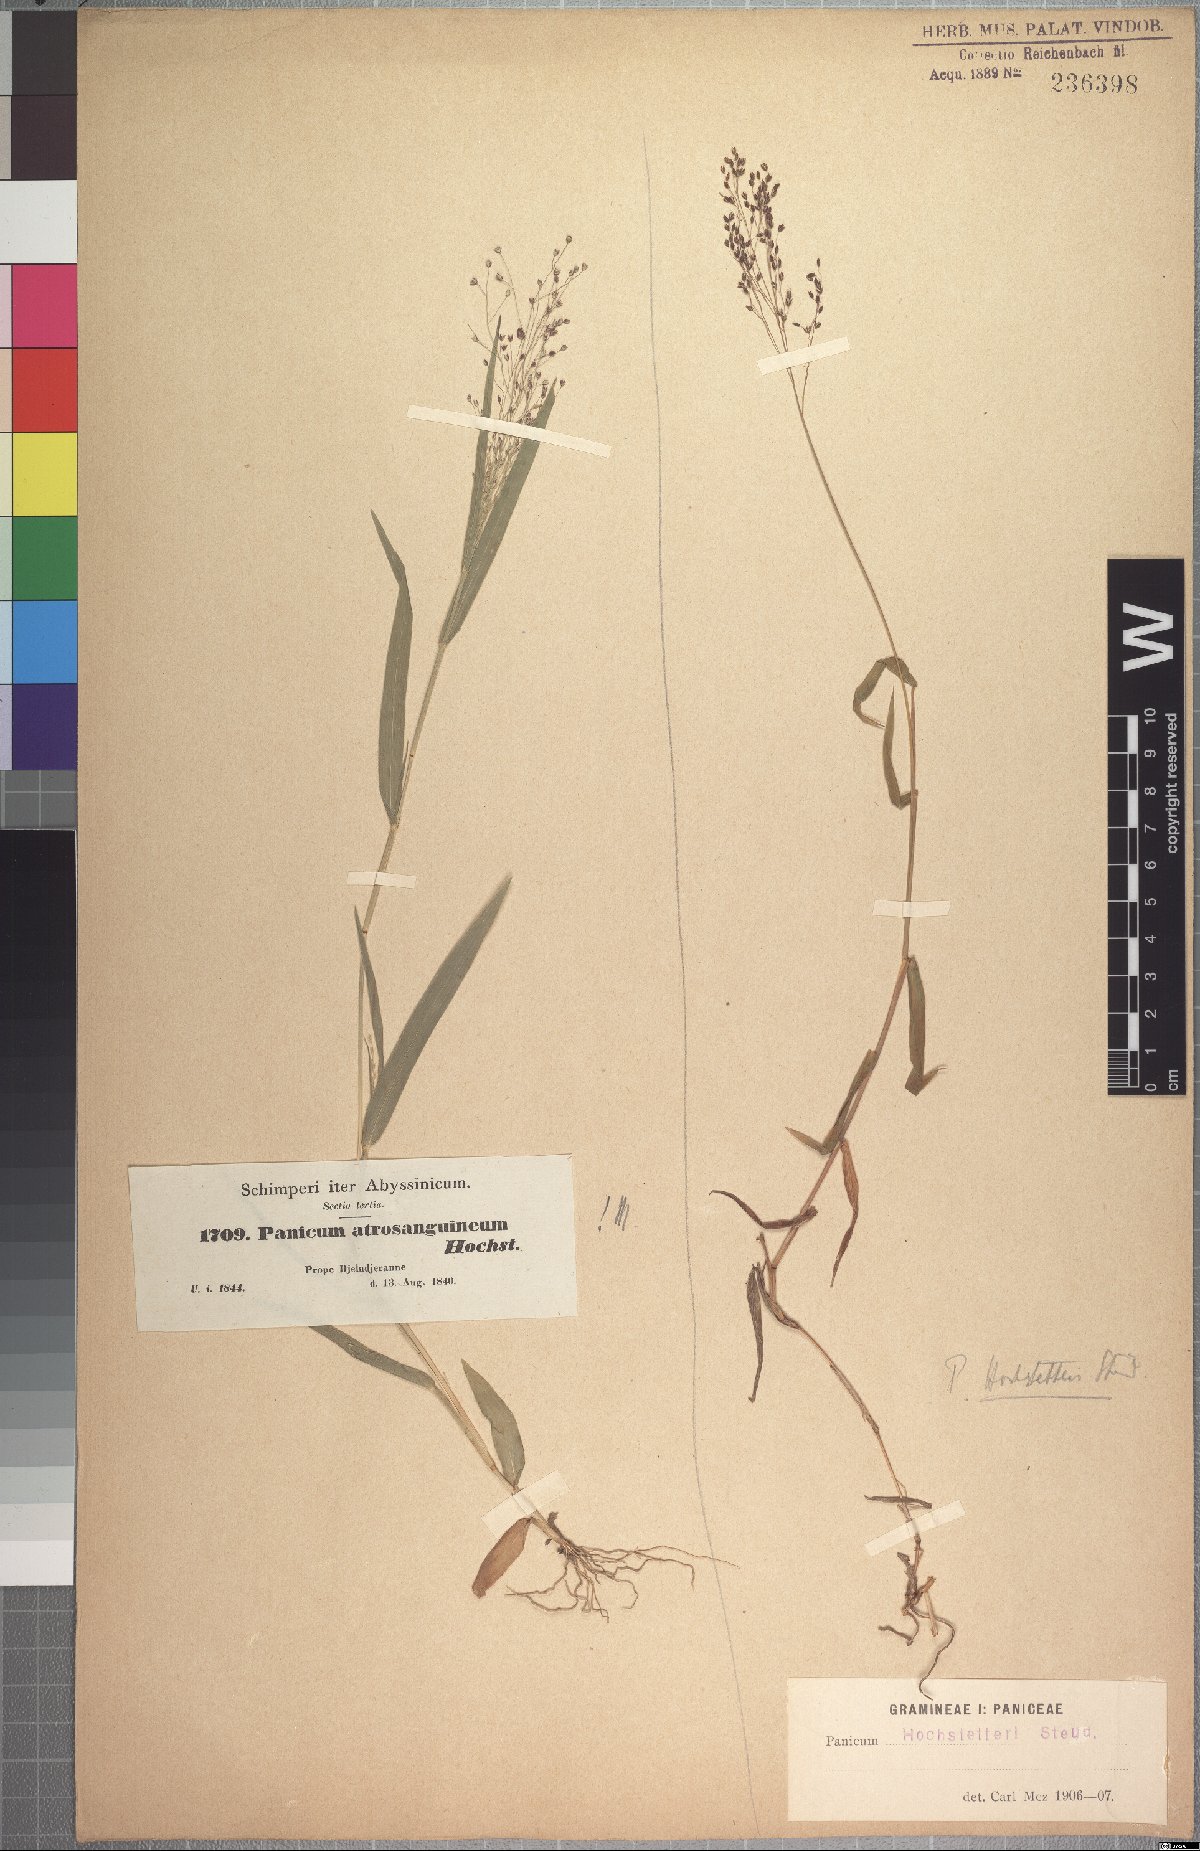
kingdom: Plantae
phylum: Tracheophyta
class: Liliopsida
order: Poales
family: Poaceae
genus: Panicum
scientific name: Panicum atrosanguineum
